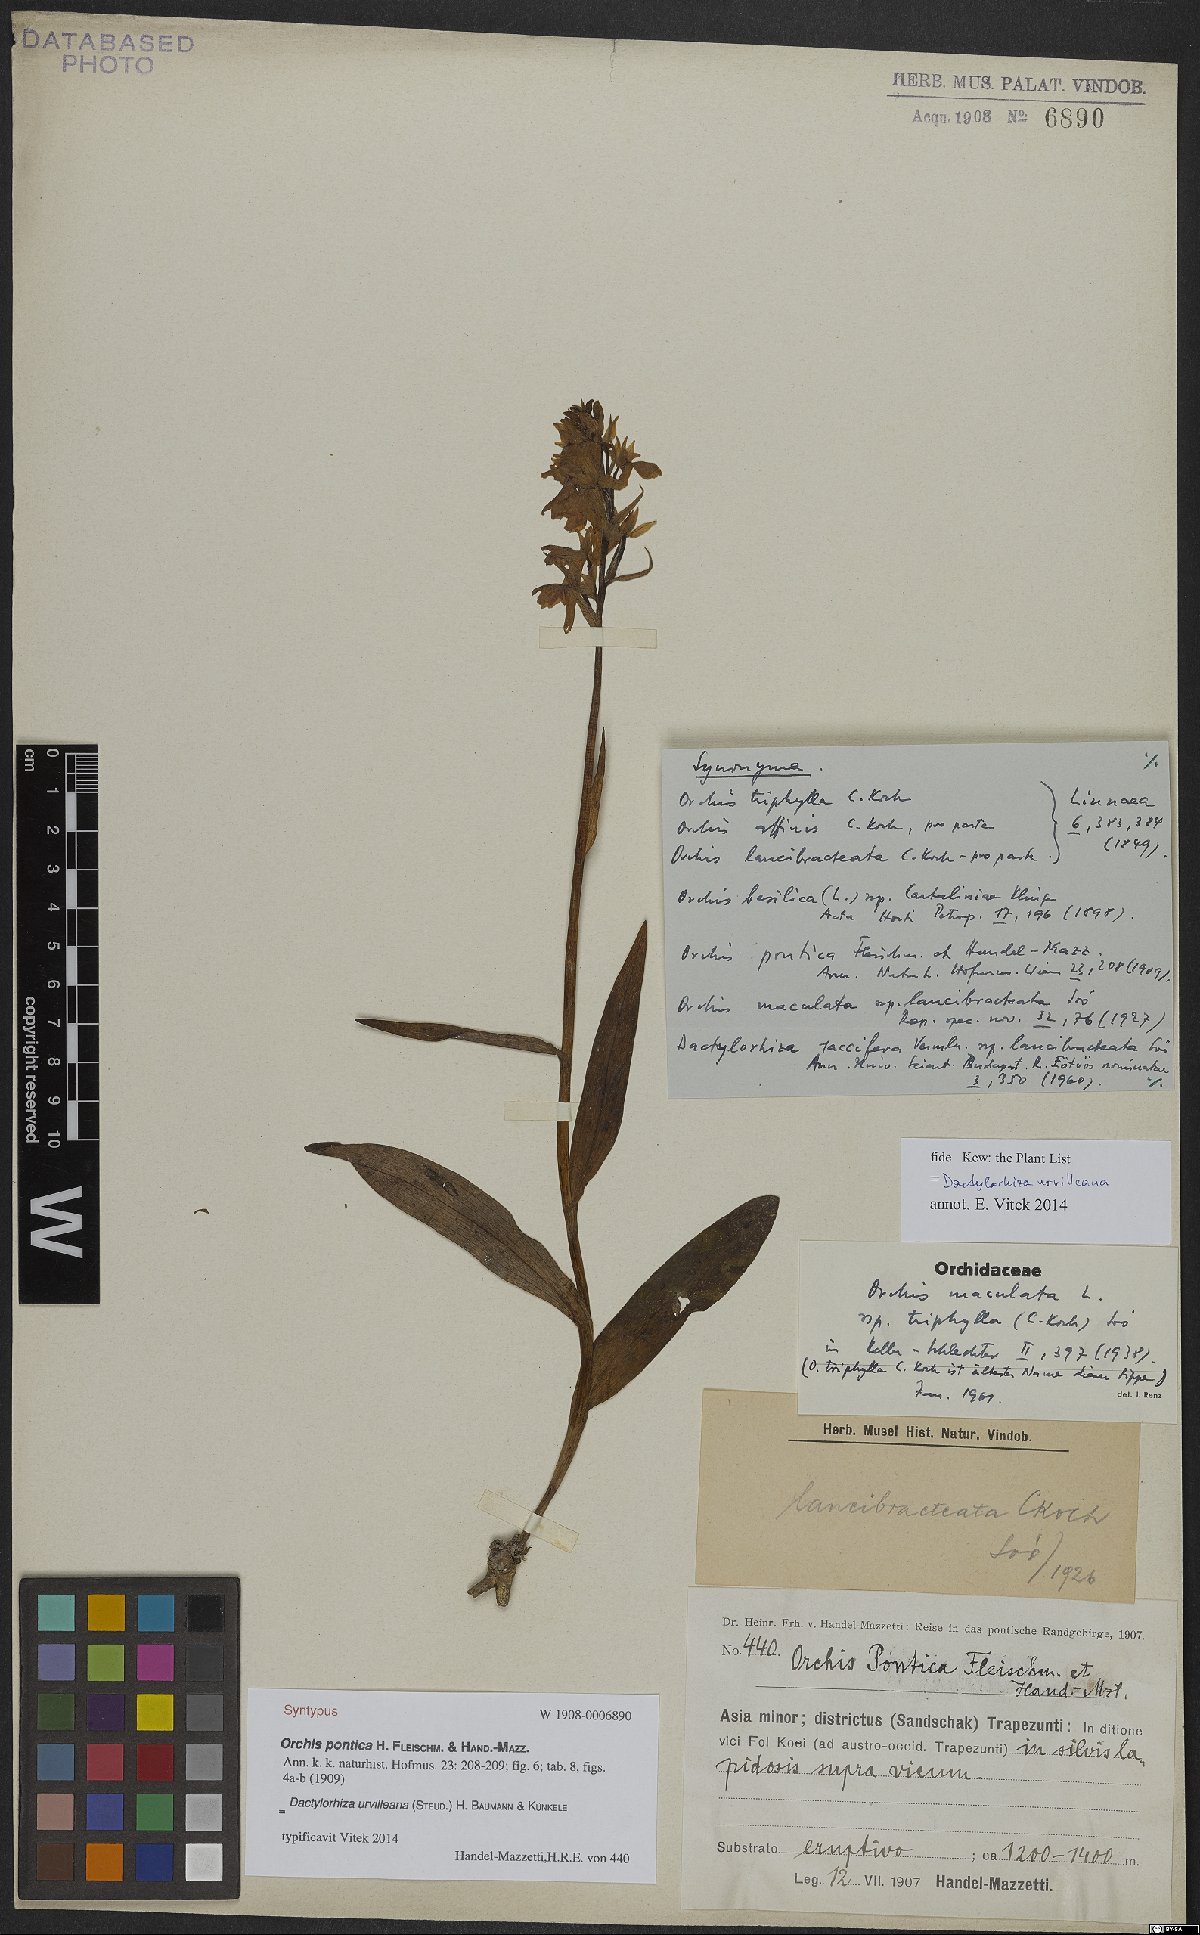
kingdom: Plantae
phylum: Tracheophyta
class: Liliopsida
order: Asparagales
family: Orchidaceae
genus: Dactylorhiza
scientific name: Dactylorhiza urvilleana
